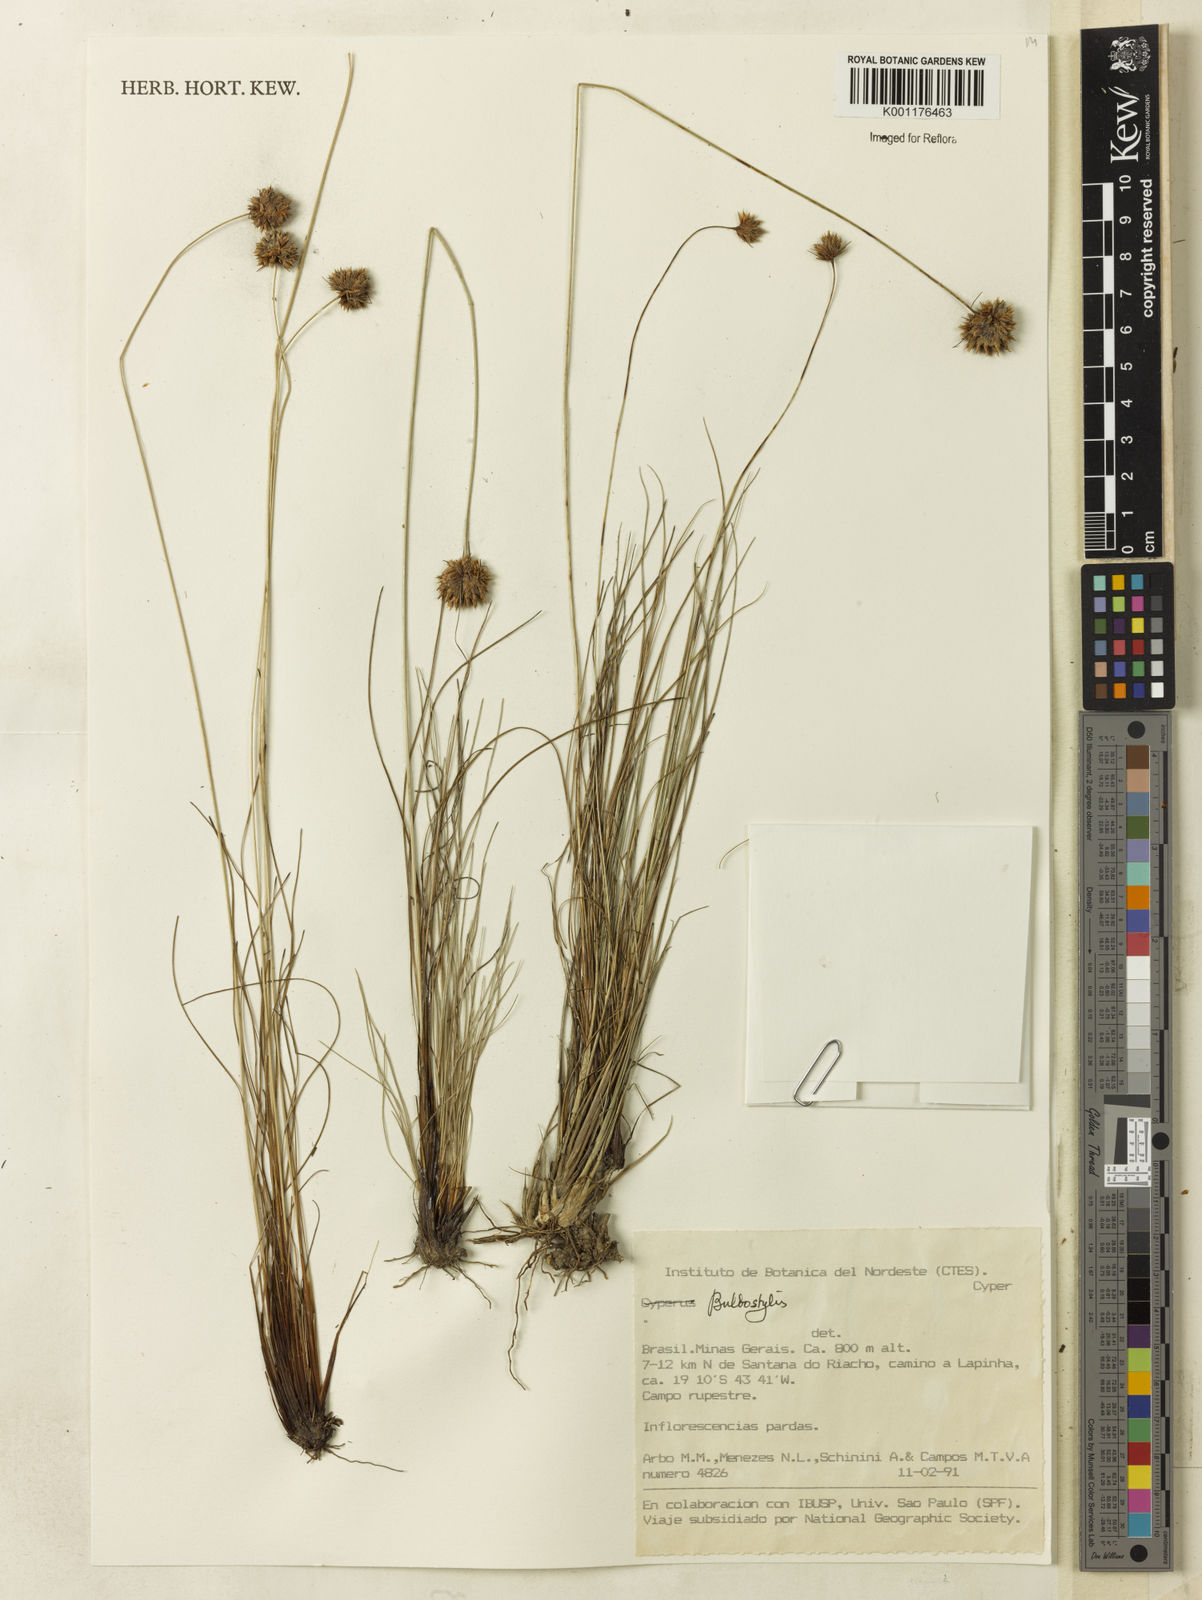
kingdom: Plantae
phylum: Tracheophyta
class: Liliopsida
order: Poales
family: Cyperaceae
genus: Bulbostylis
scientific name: Bulbostylis barbata
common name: Watergrass
